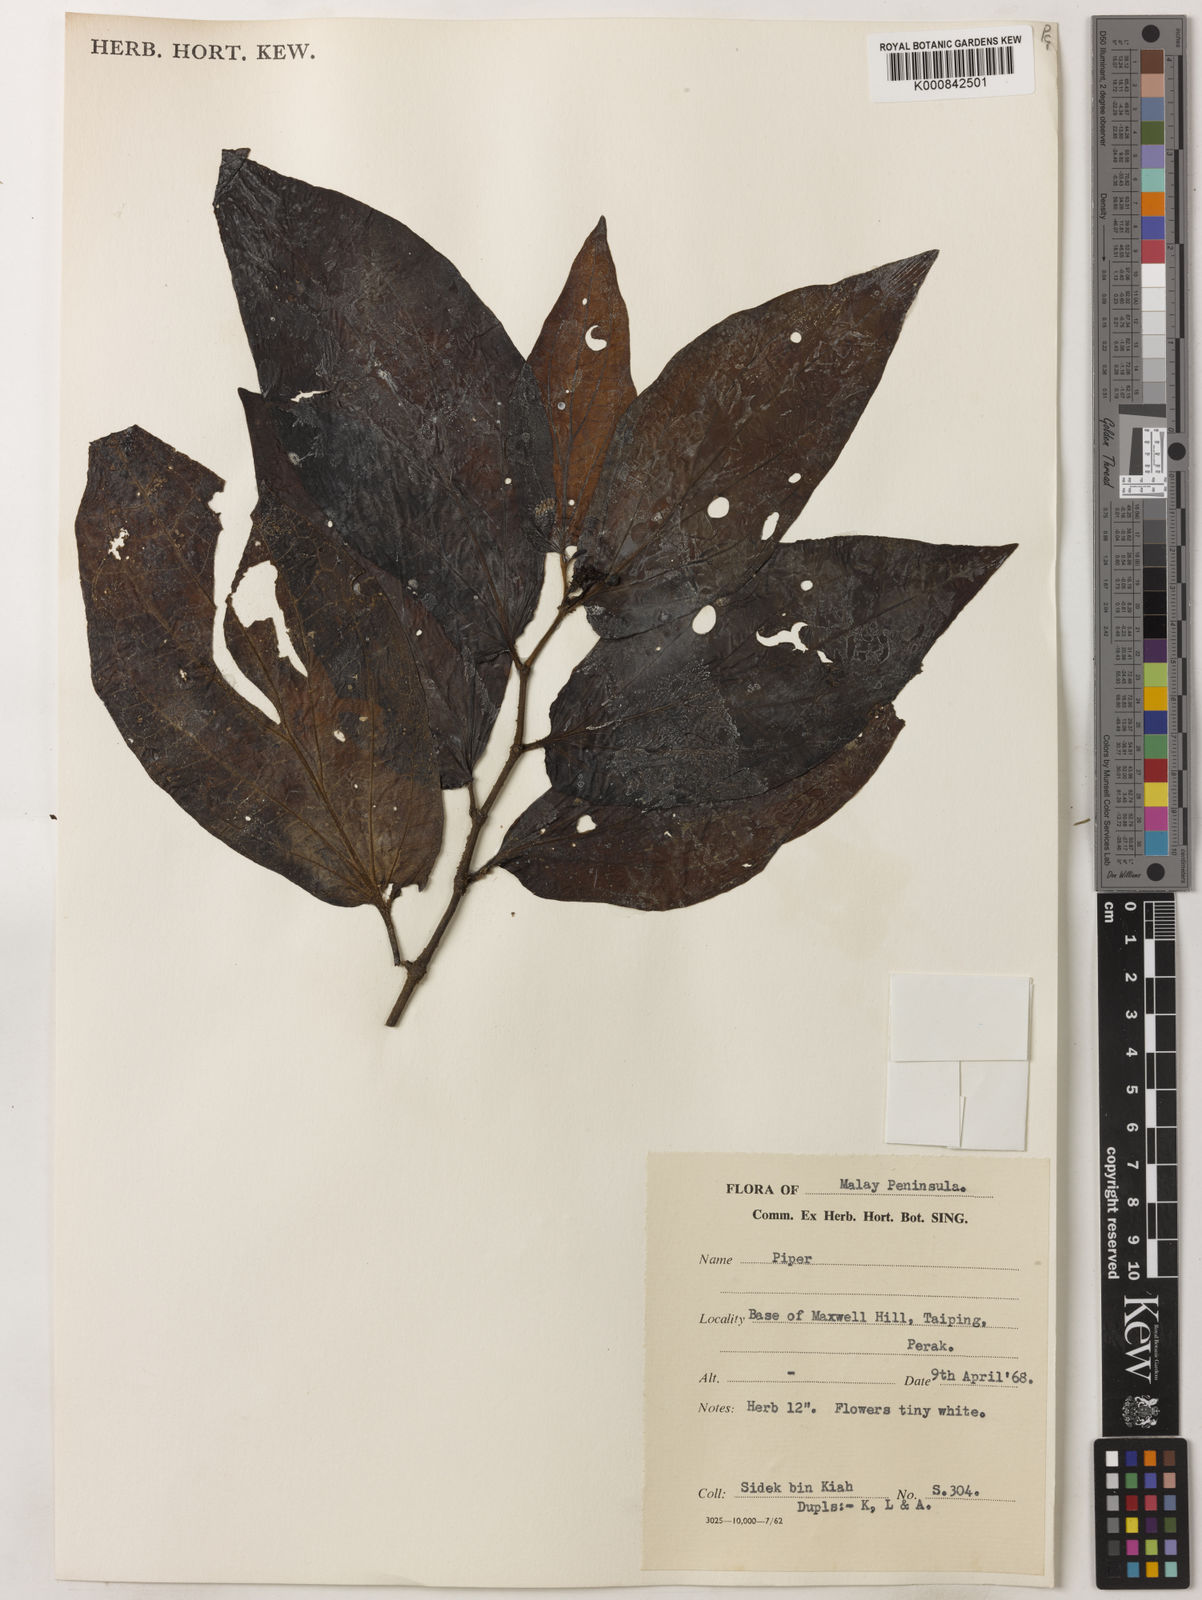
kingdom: Plantae
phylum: Tracheophyta
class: Magnoliopsida
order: Piperales
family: Piperaceae
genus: Piper
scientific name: Piper
